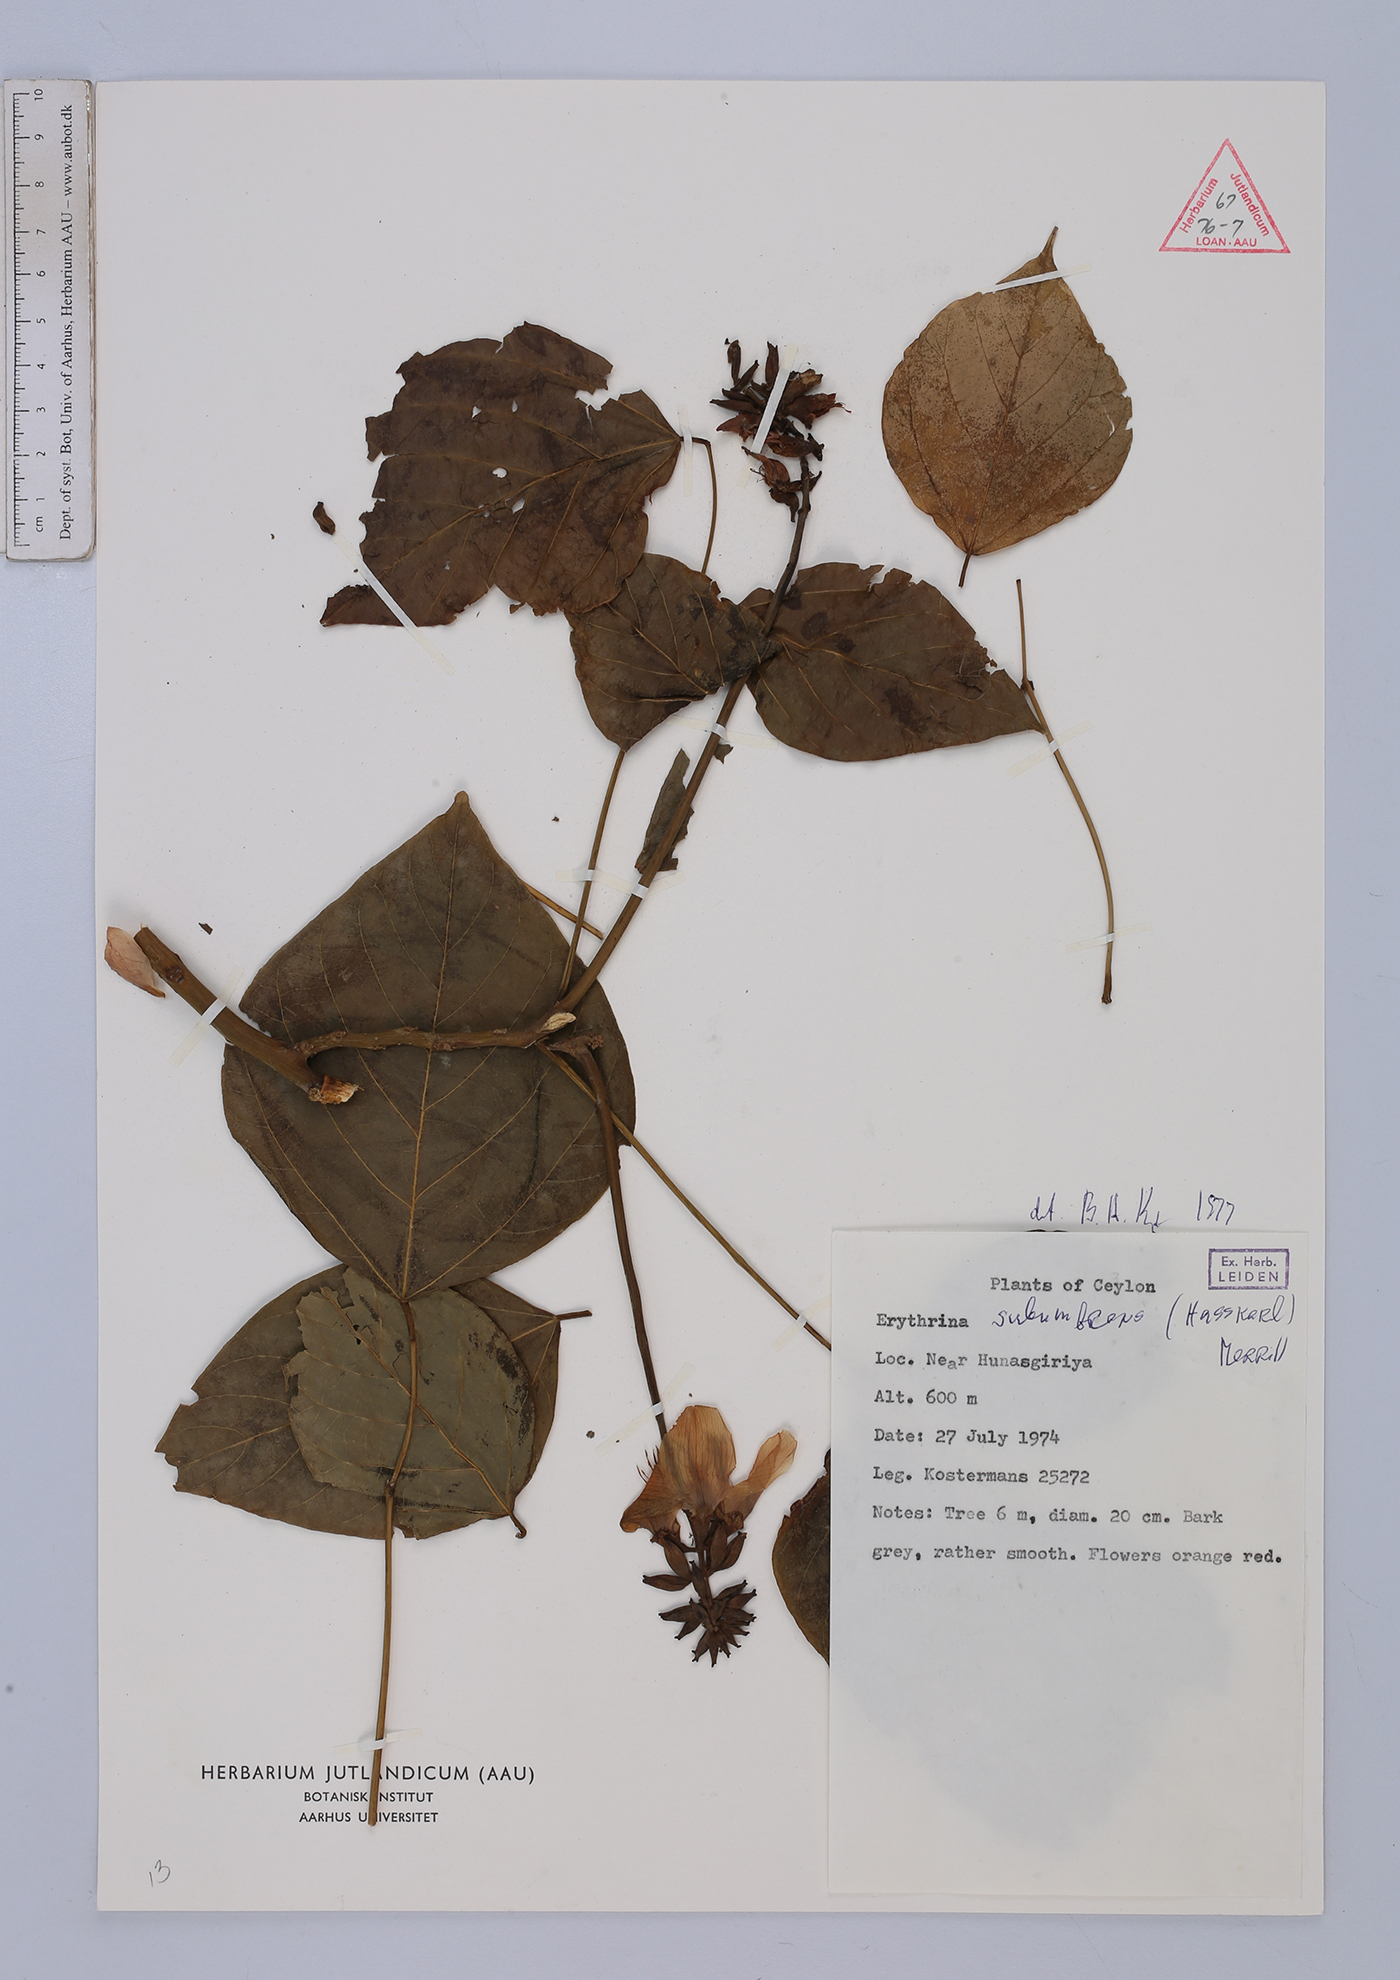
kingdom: Plantae
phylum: Tracheophyta
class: Magnoliopsida
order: Fabales
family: Fabaceae
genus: Erythrina
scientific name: Erythrina subumbrans
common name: December-tree
